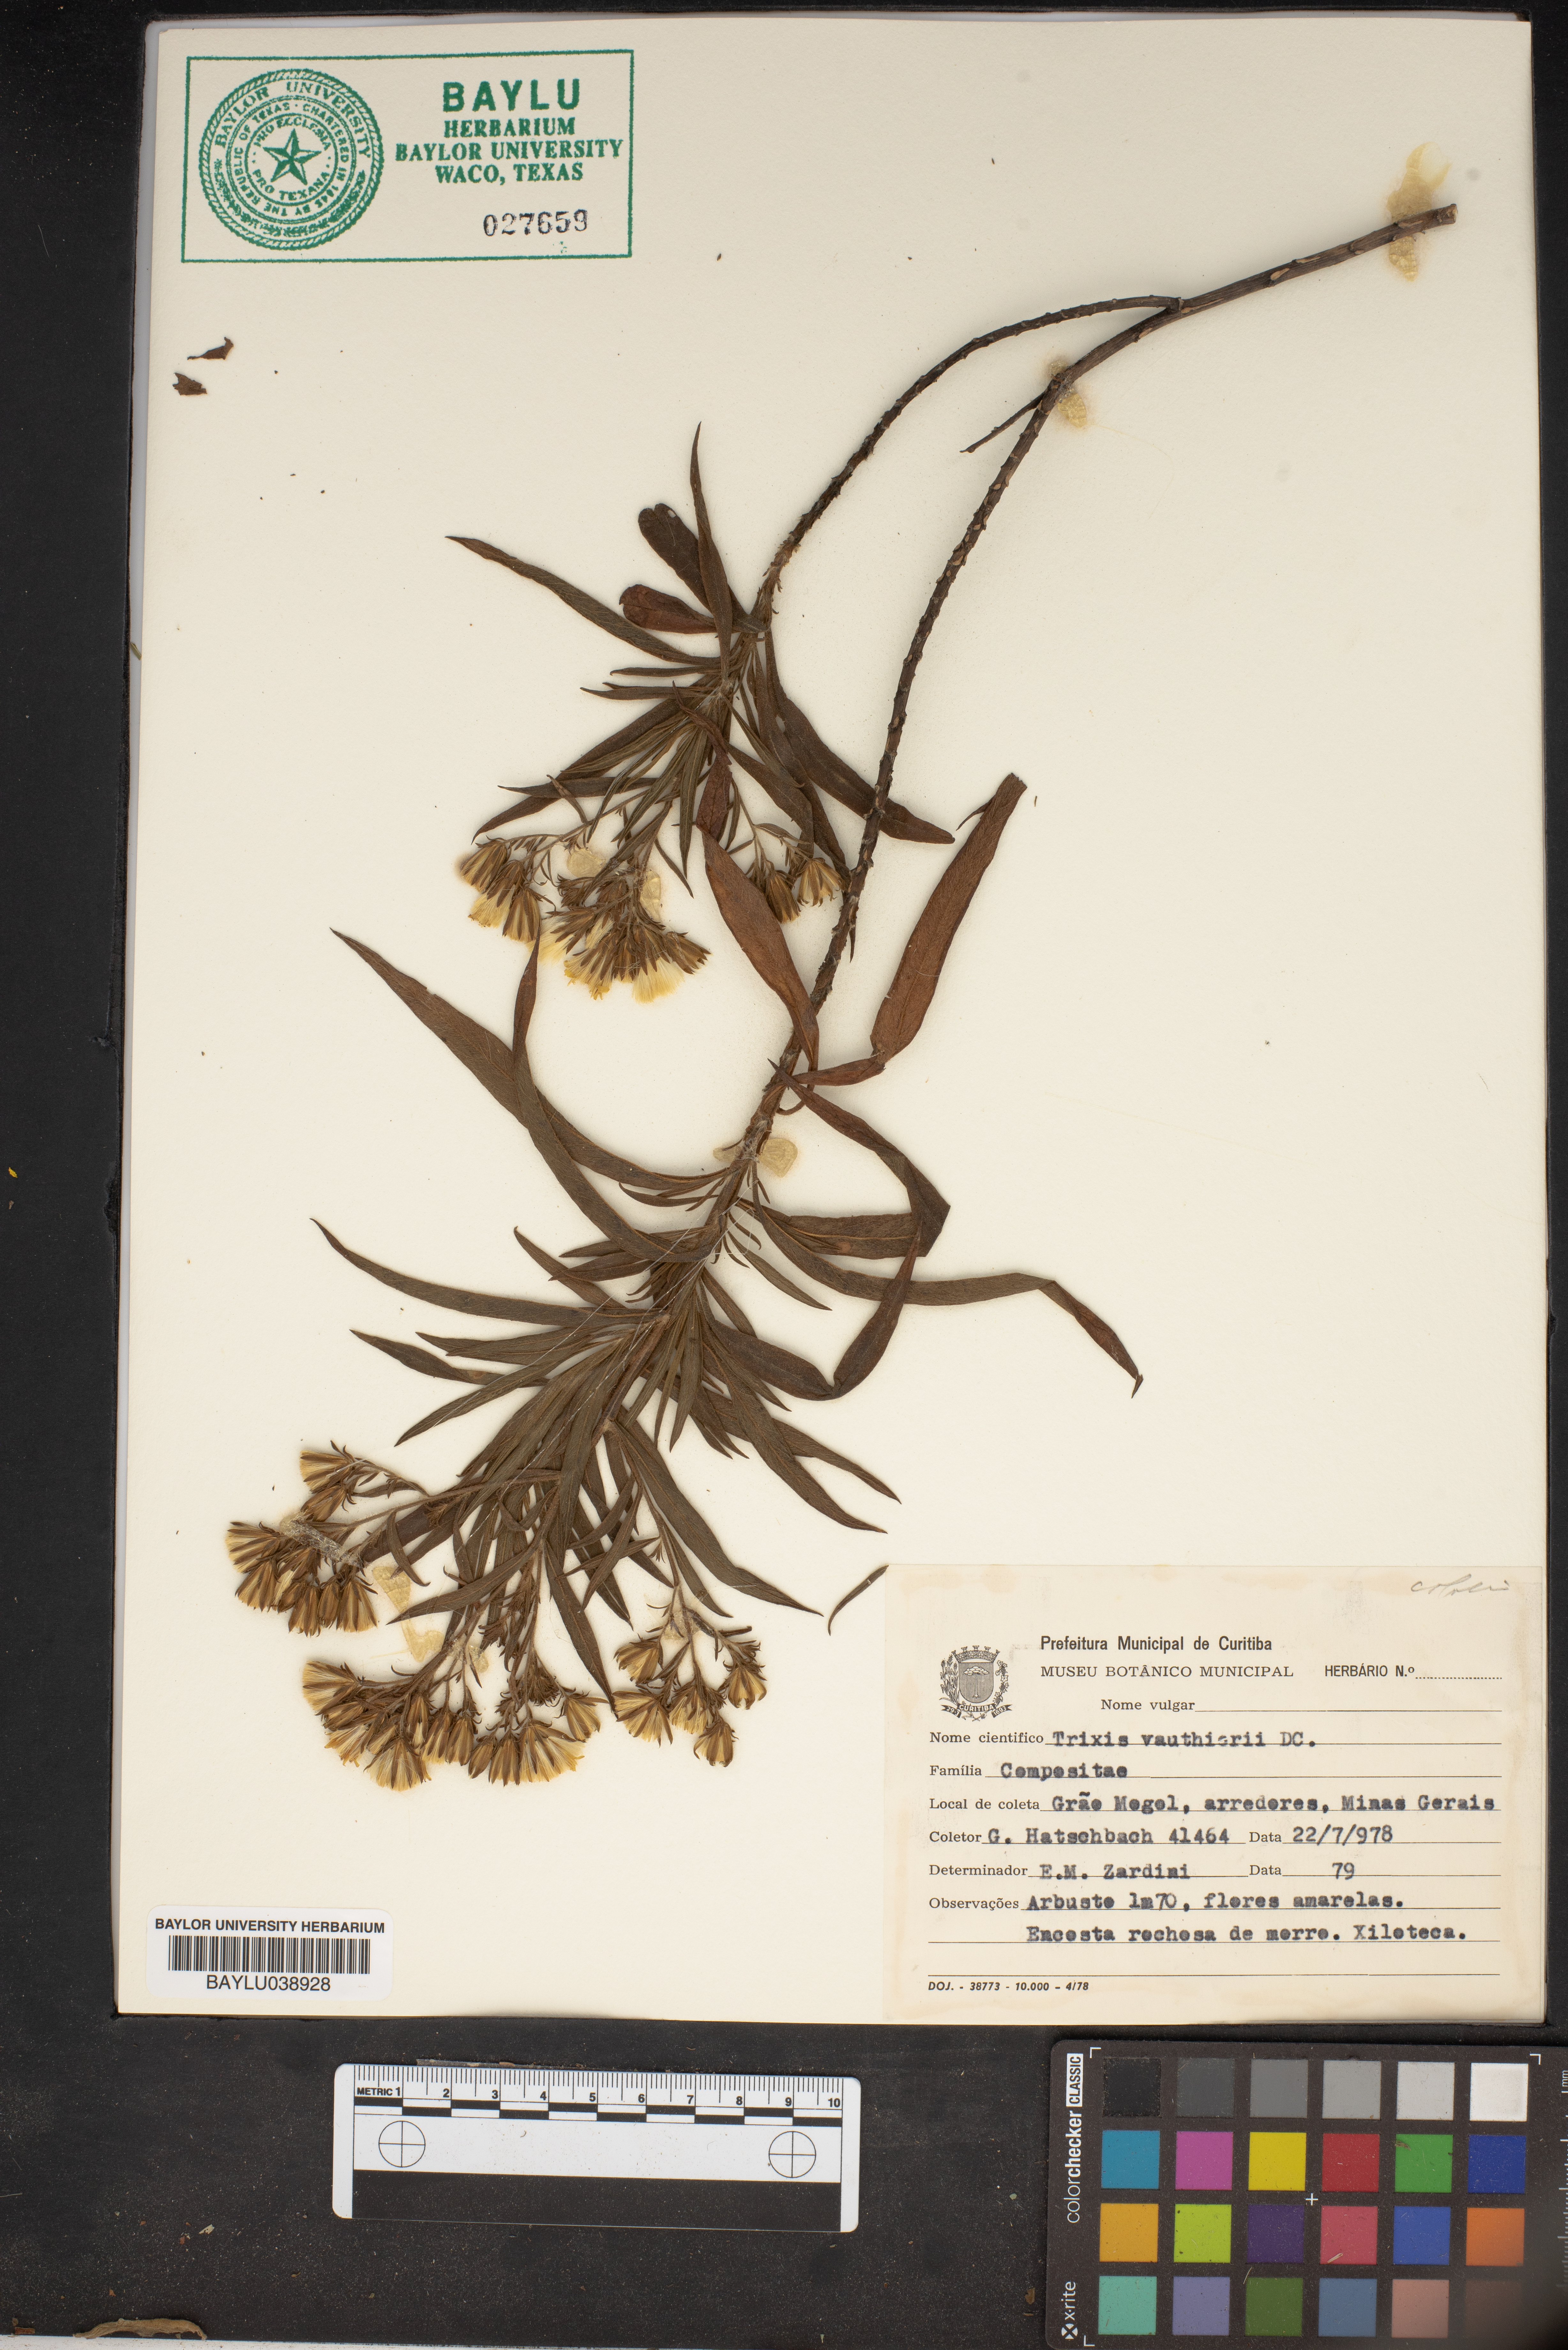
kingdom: Plantae
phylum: Tracheophyta
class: Magnoliopsida
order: Asterales
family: Asteraceae
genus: Trixis
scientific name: Trixis vauthieri
